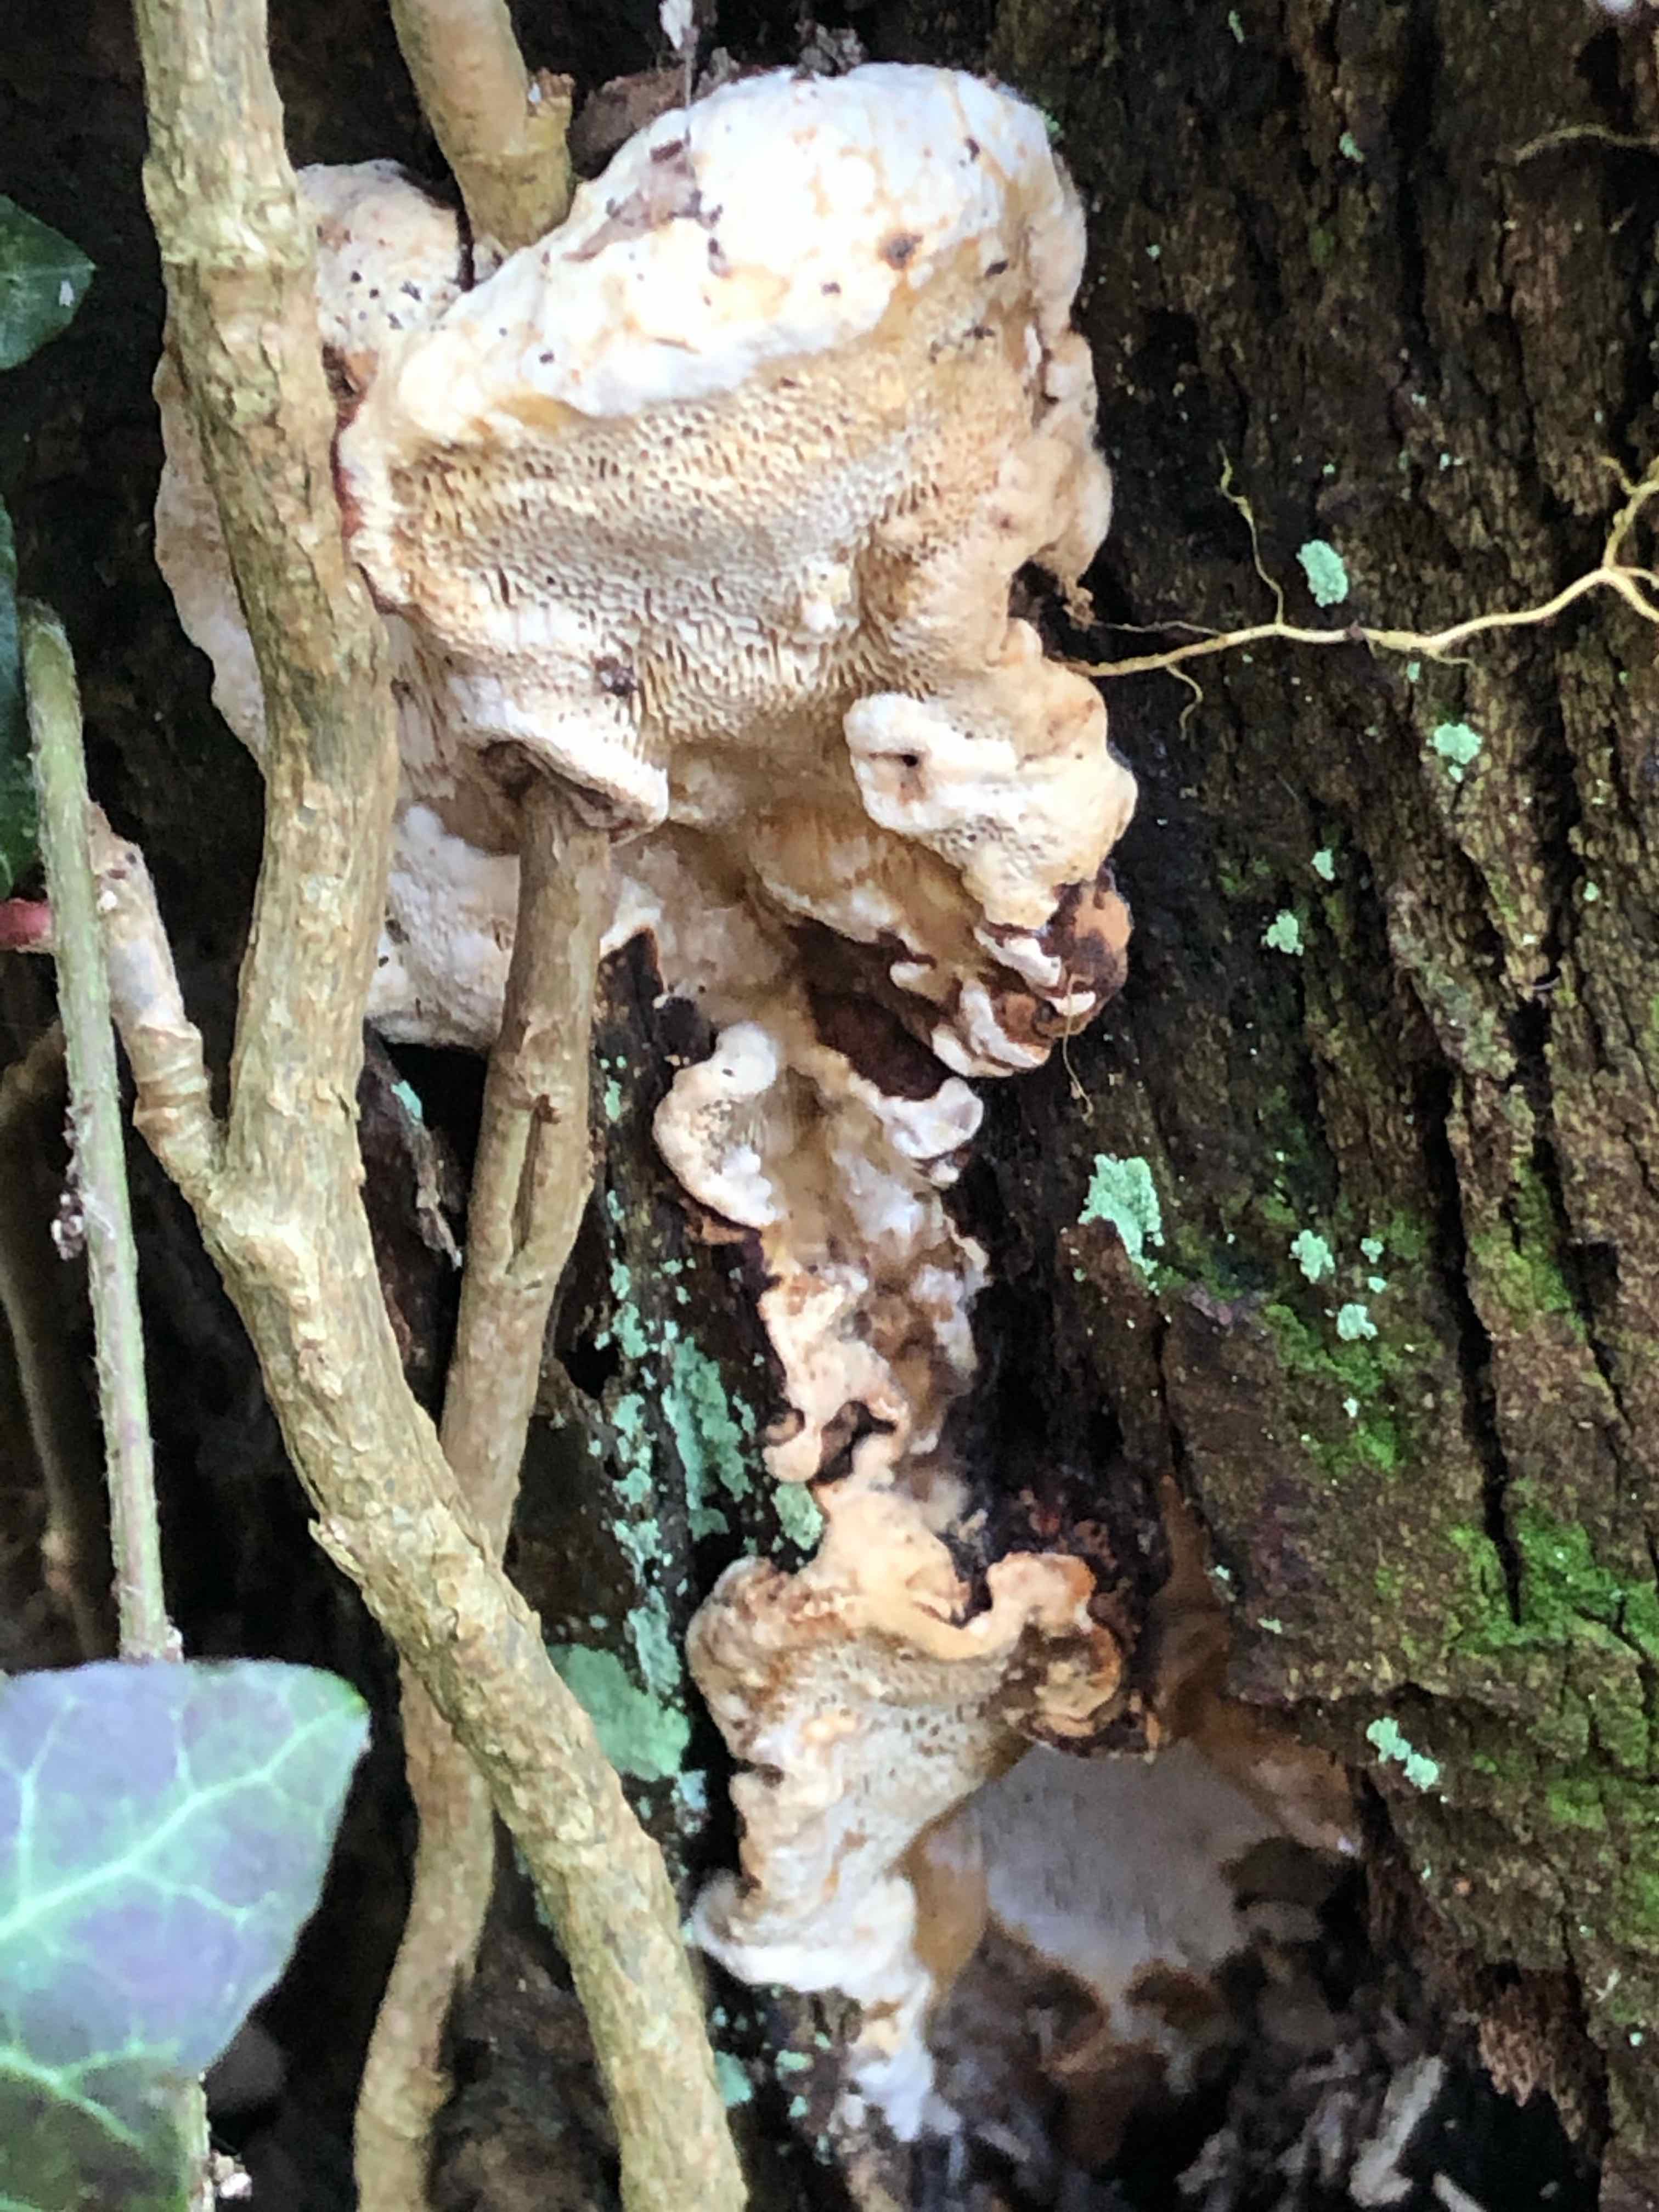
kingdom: Fungi
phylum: Basidiomycota
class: Agaricomycetes
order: Polyporales
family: Phanerochaetaceae
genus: Bjerkandera
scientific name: Bjerkandera fumosa
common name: grågul sodporesvamp
